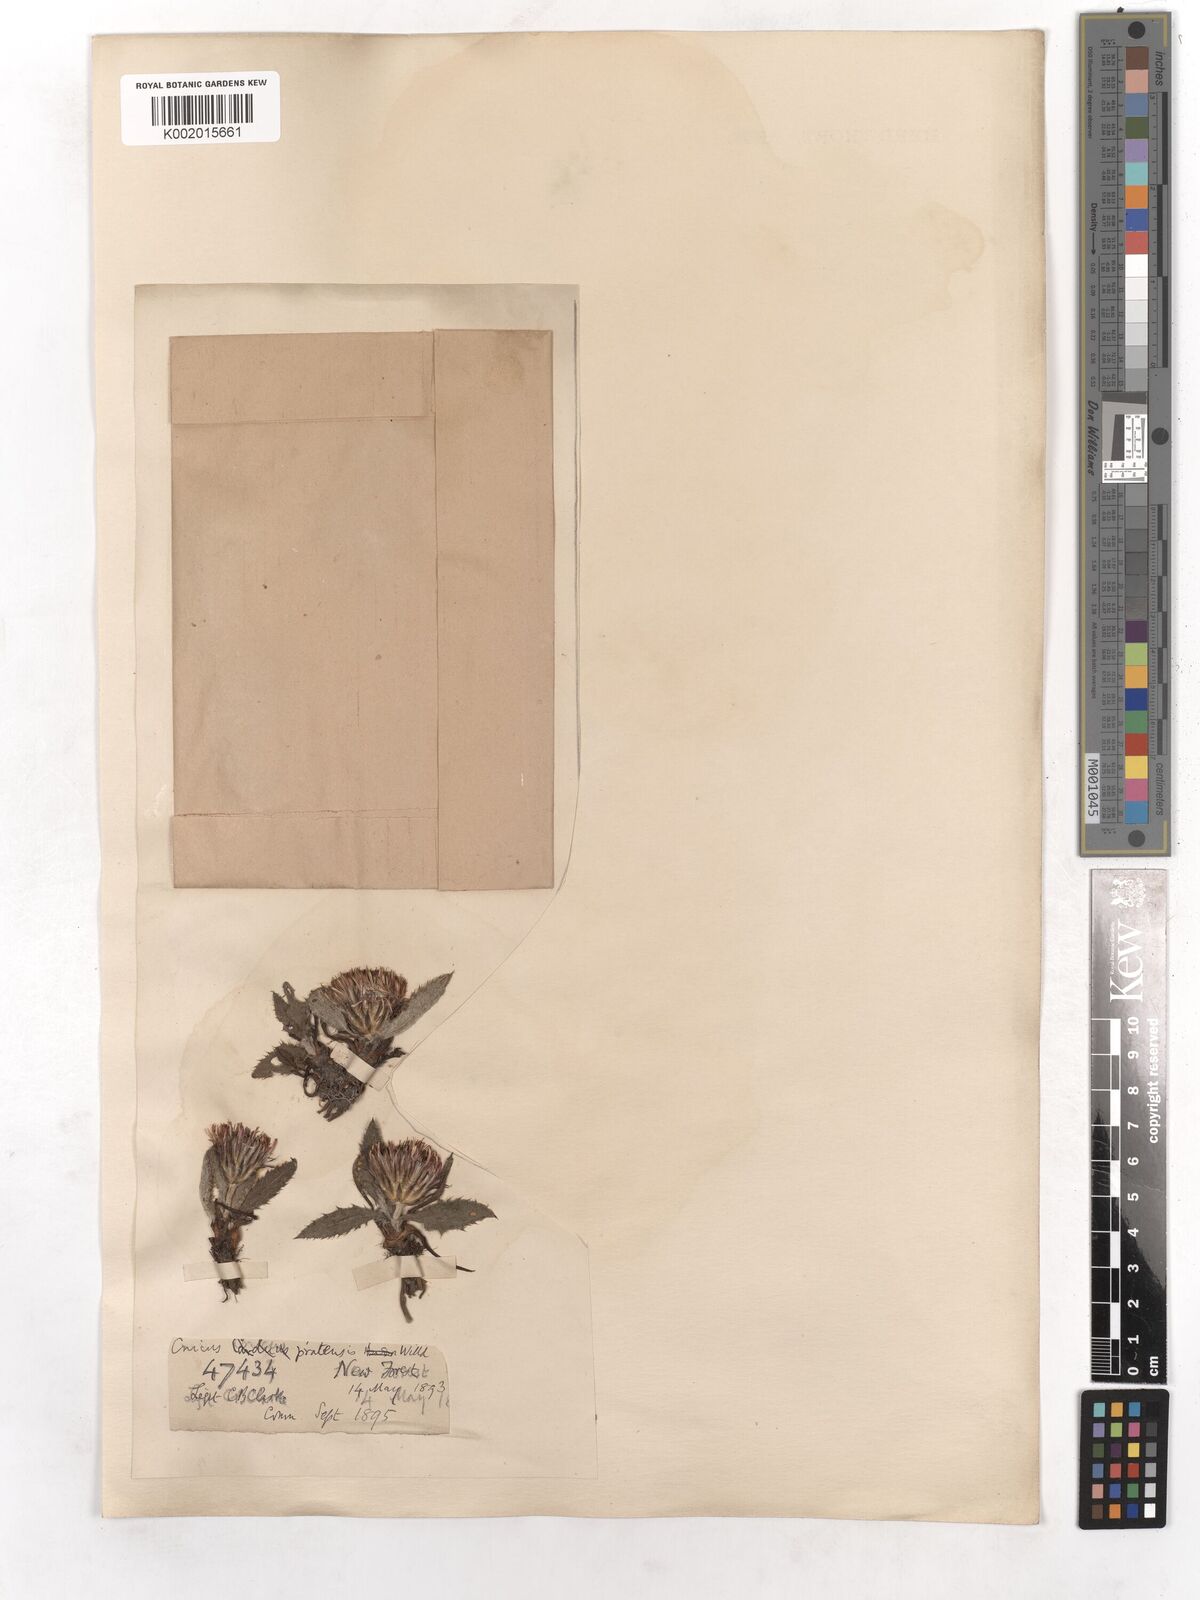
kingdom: Plantae
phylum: Tracheophyta
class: Magnoliopsida
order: Asterales
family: Asteraceae
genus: Cirsium
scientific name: Cirsium dissectum
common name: Meadow thistle
